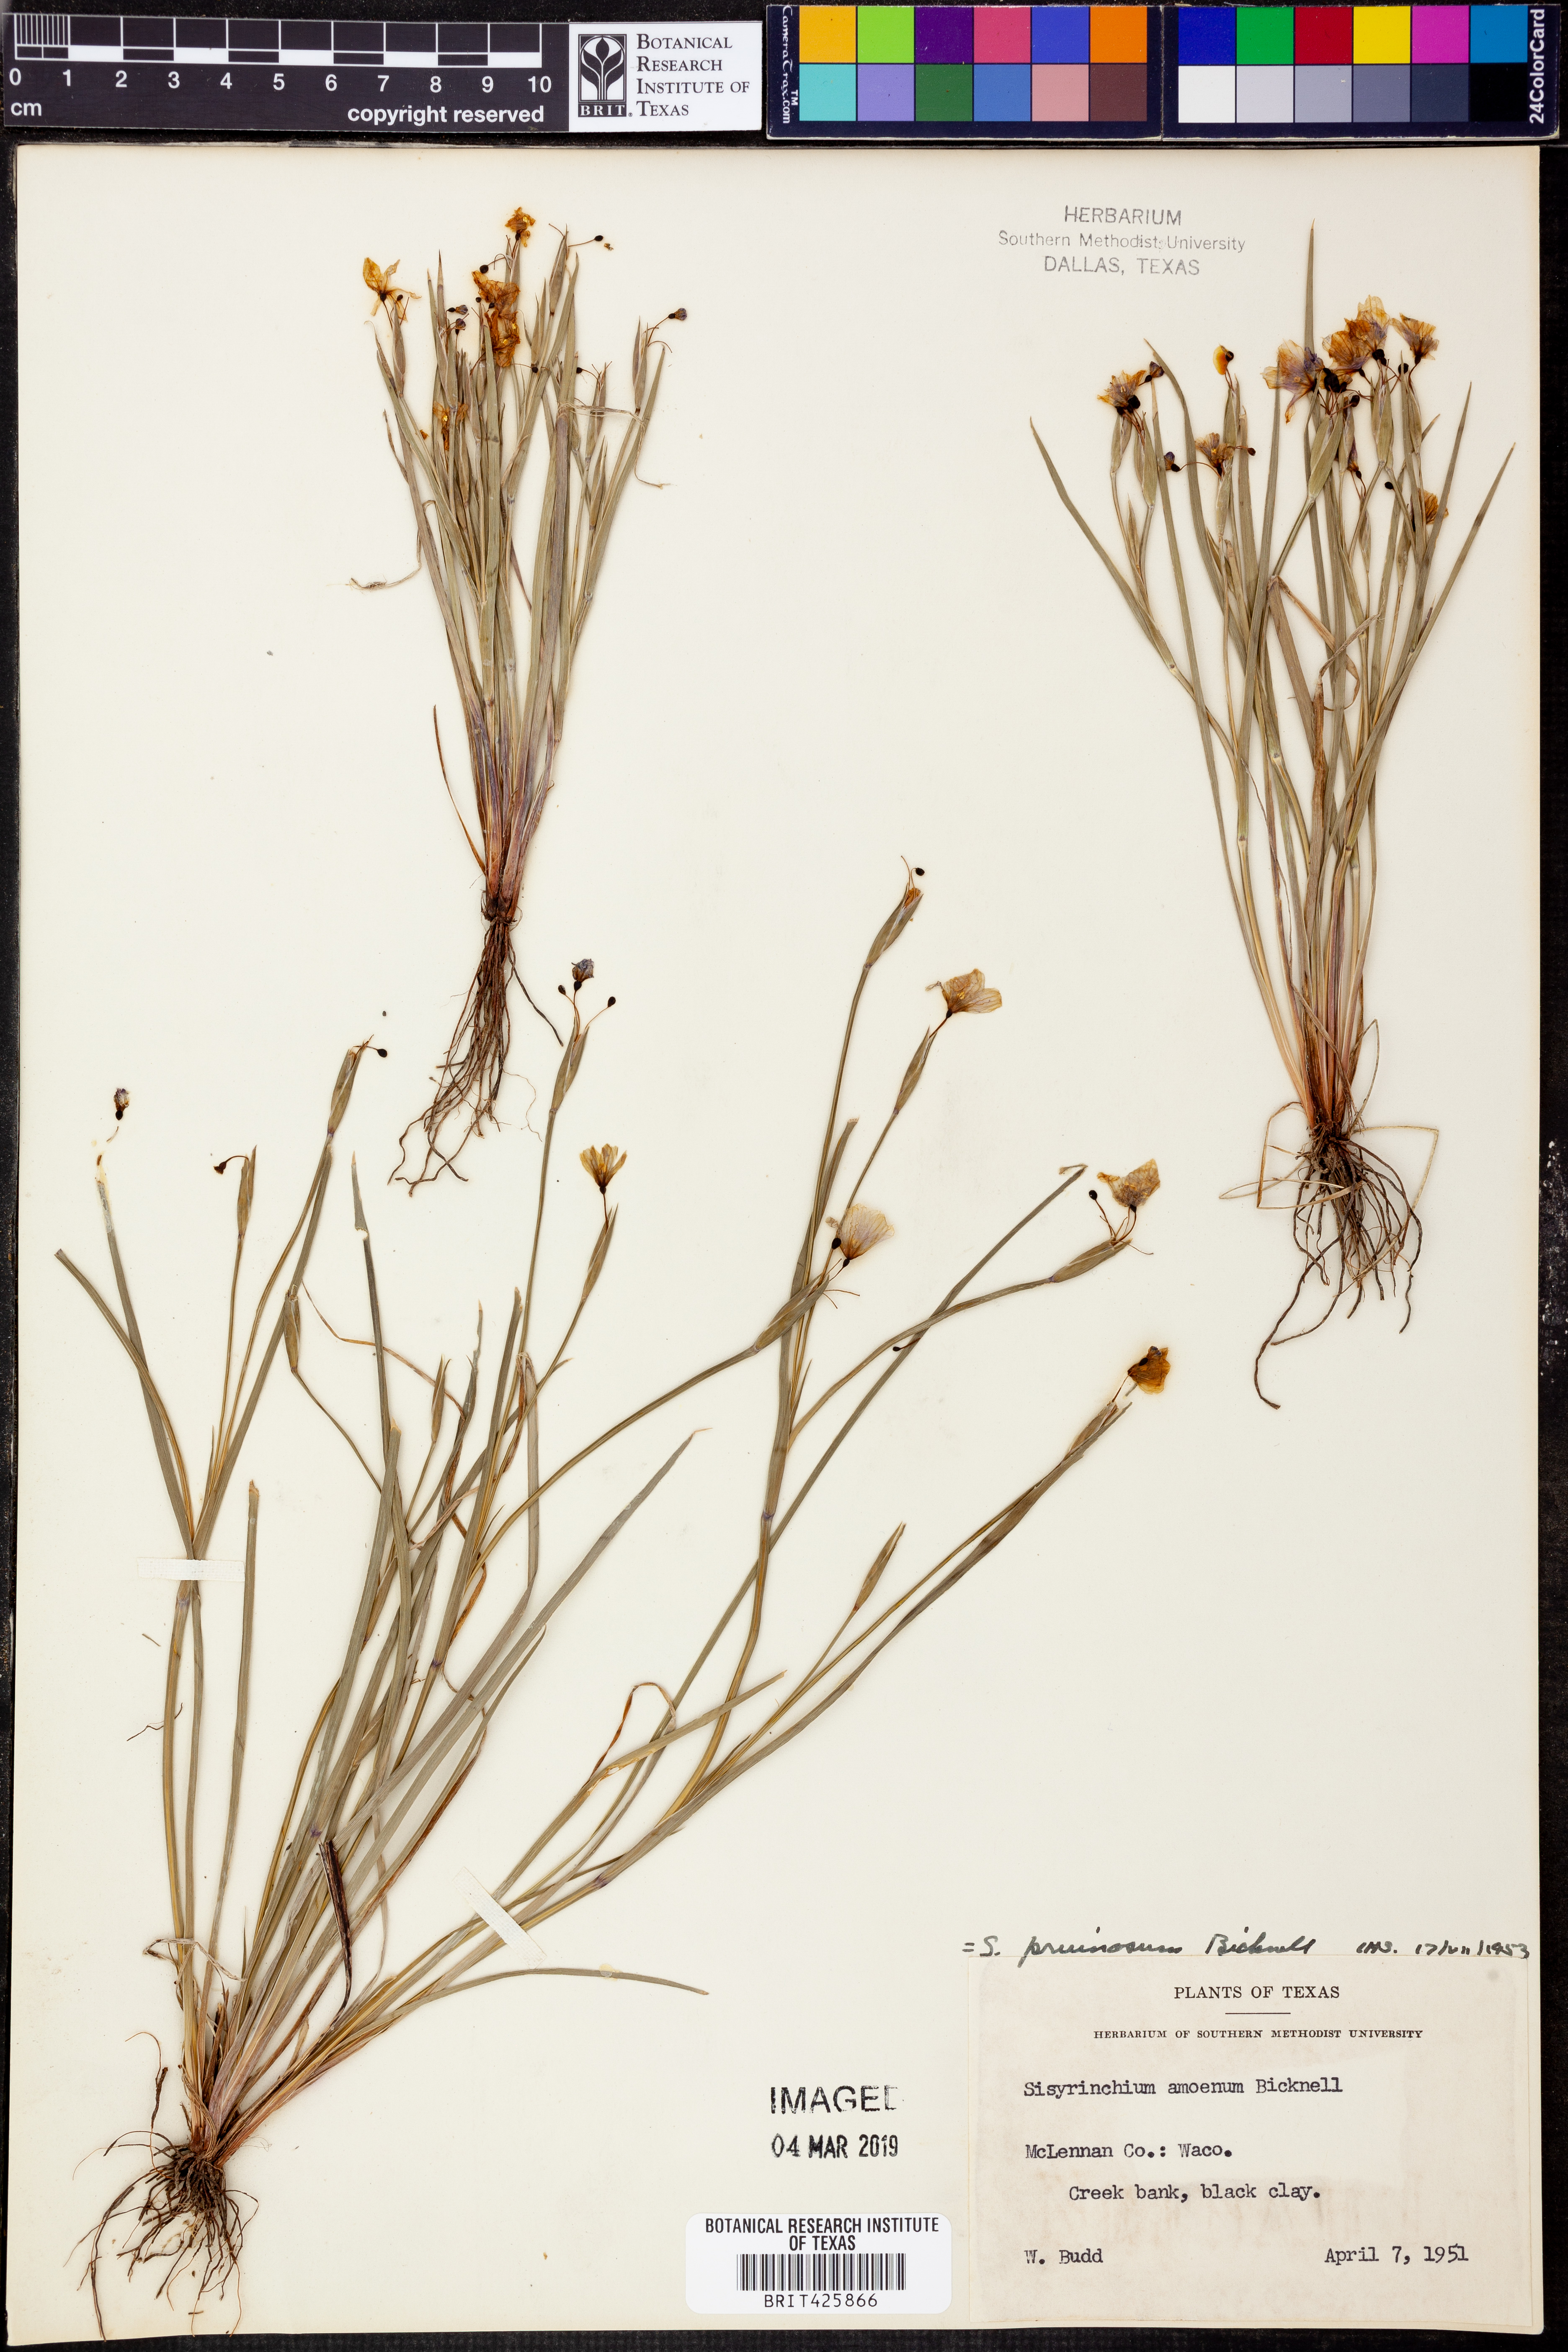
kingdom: Plantae
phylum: Tracheophyta
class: Liliopsida
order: Asparagales
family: Iridaceae
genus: Sisyrinchium
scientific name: Sisyrinchium pruinosum
